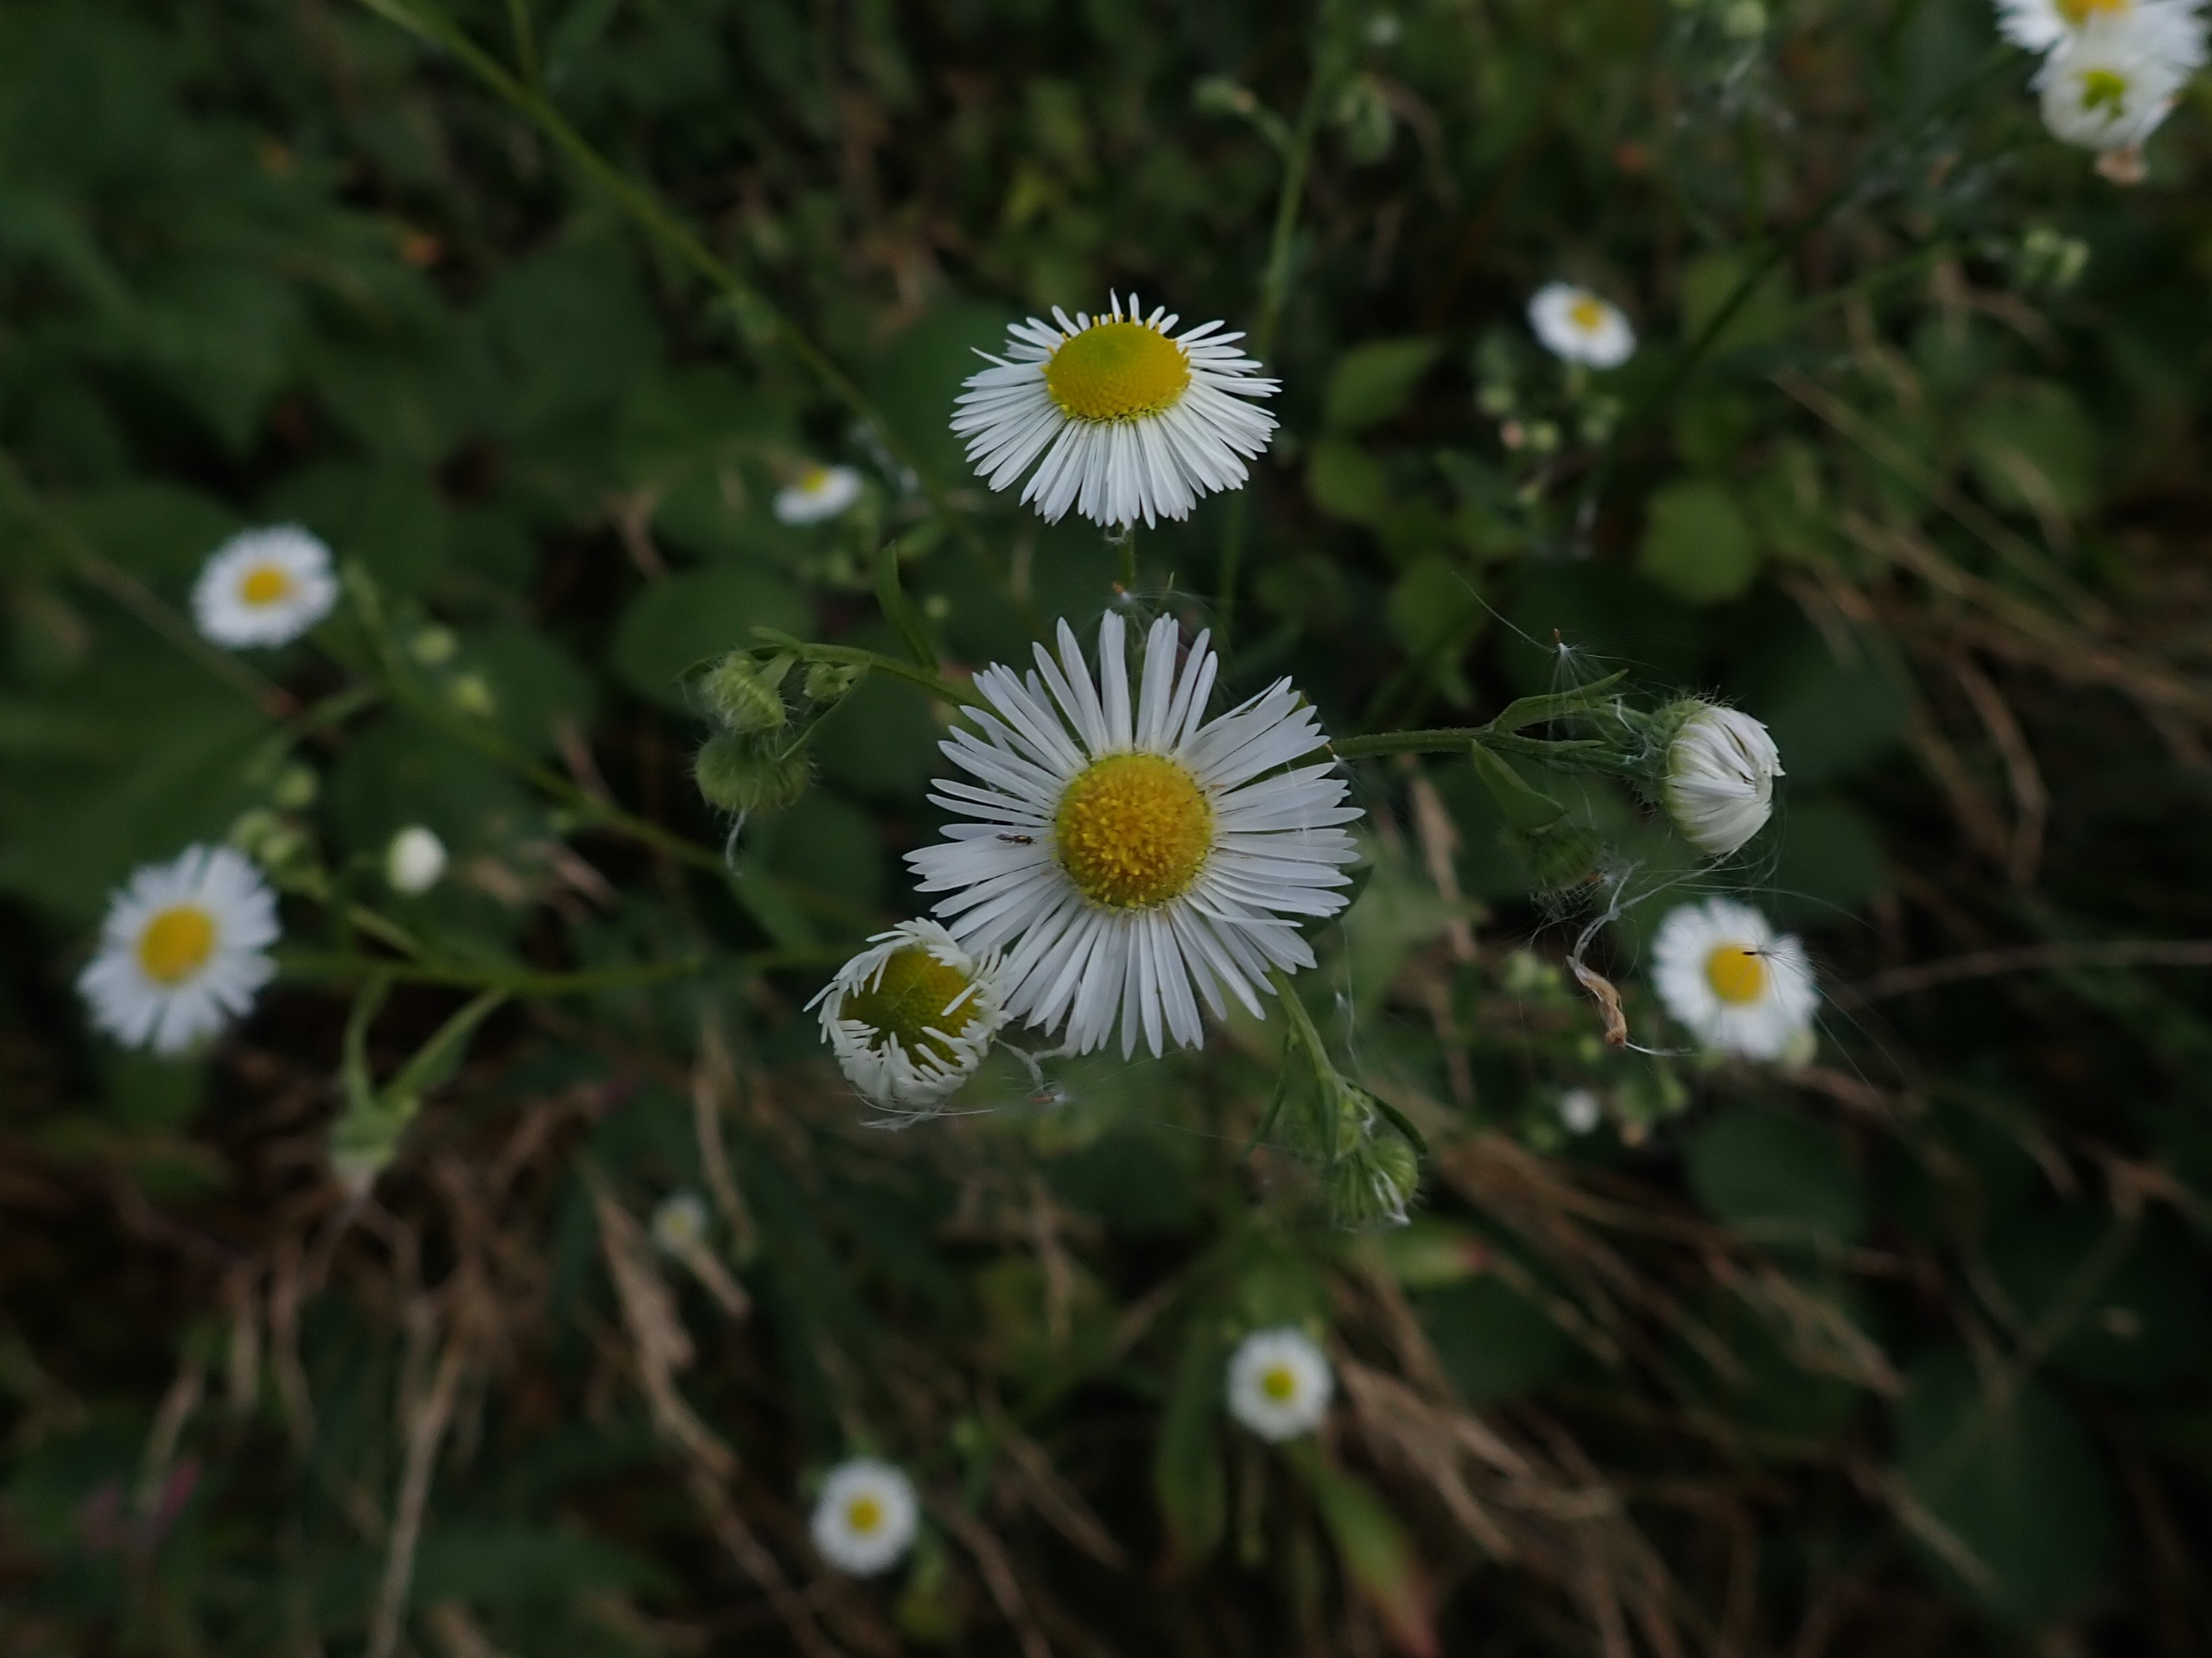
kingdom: Plantae
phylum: Tracheophyta
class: Magnoliopsida
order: Asterales
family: Asteraceae
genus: Erigeron
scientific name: Erigeron annuus
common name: Smalstråle
